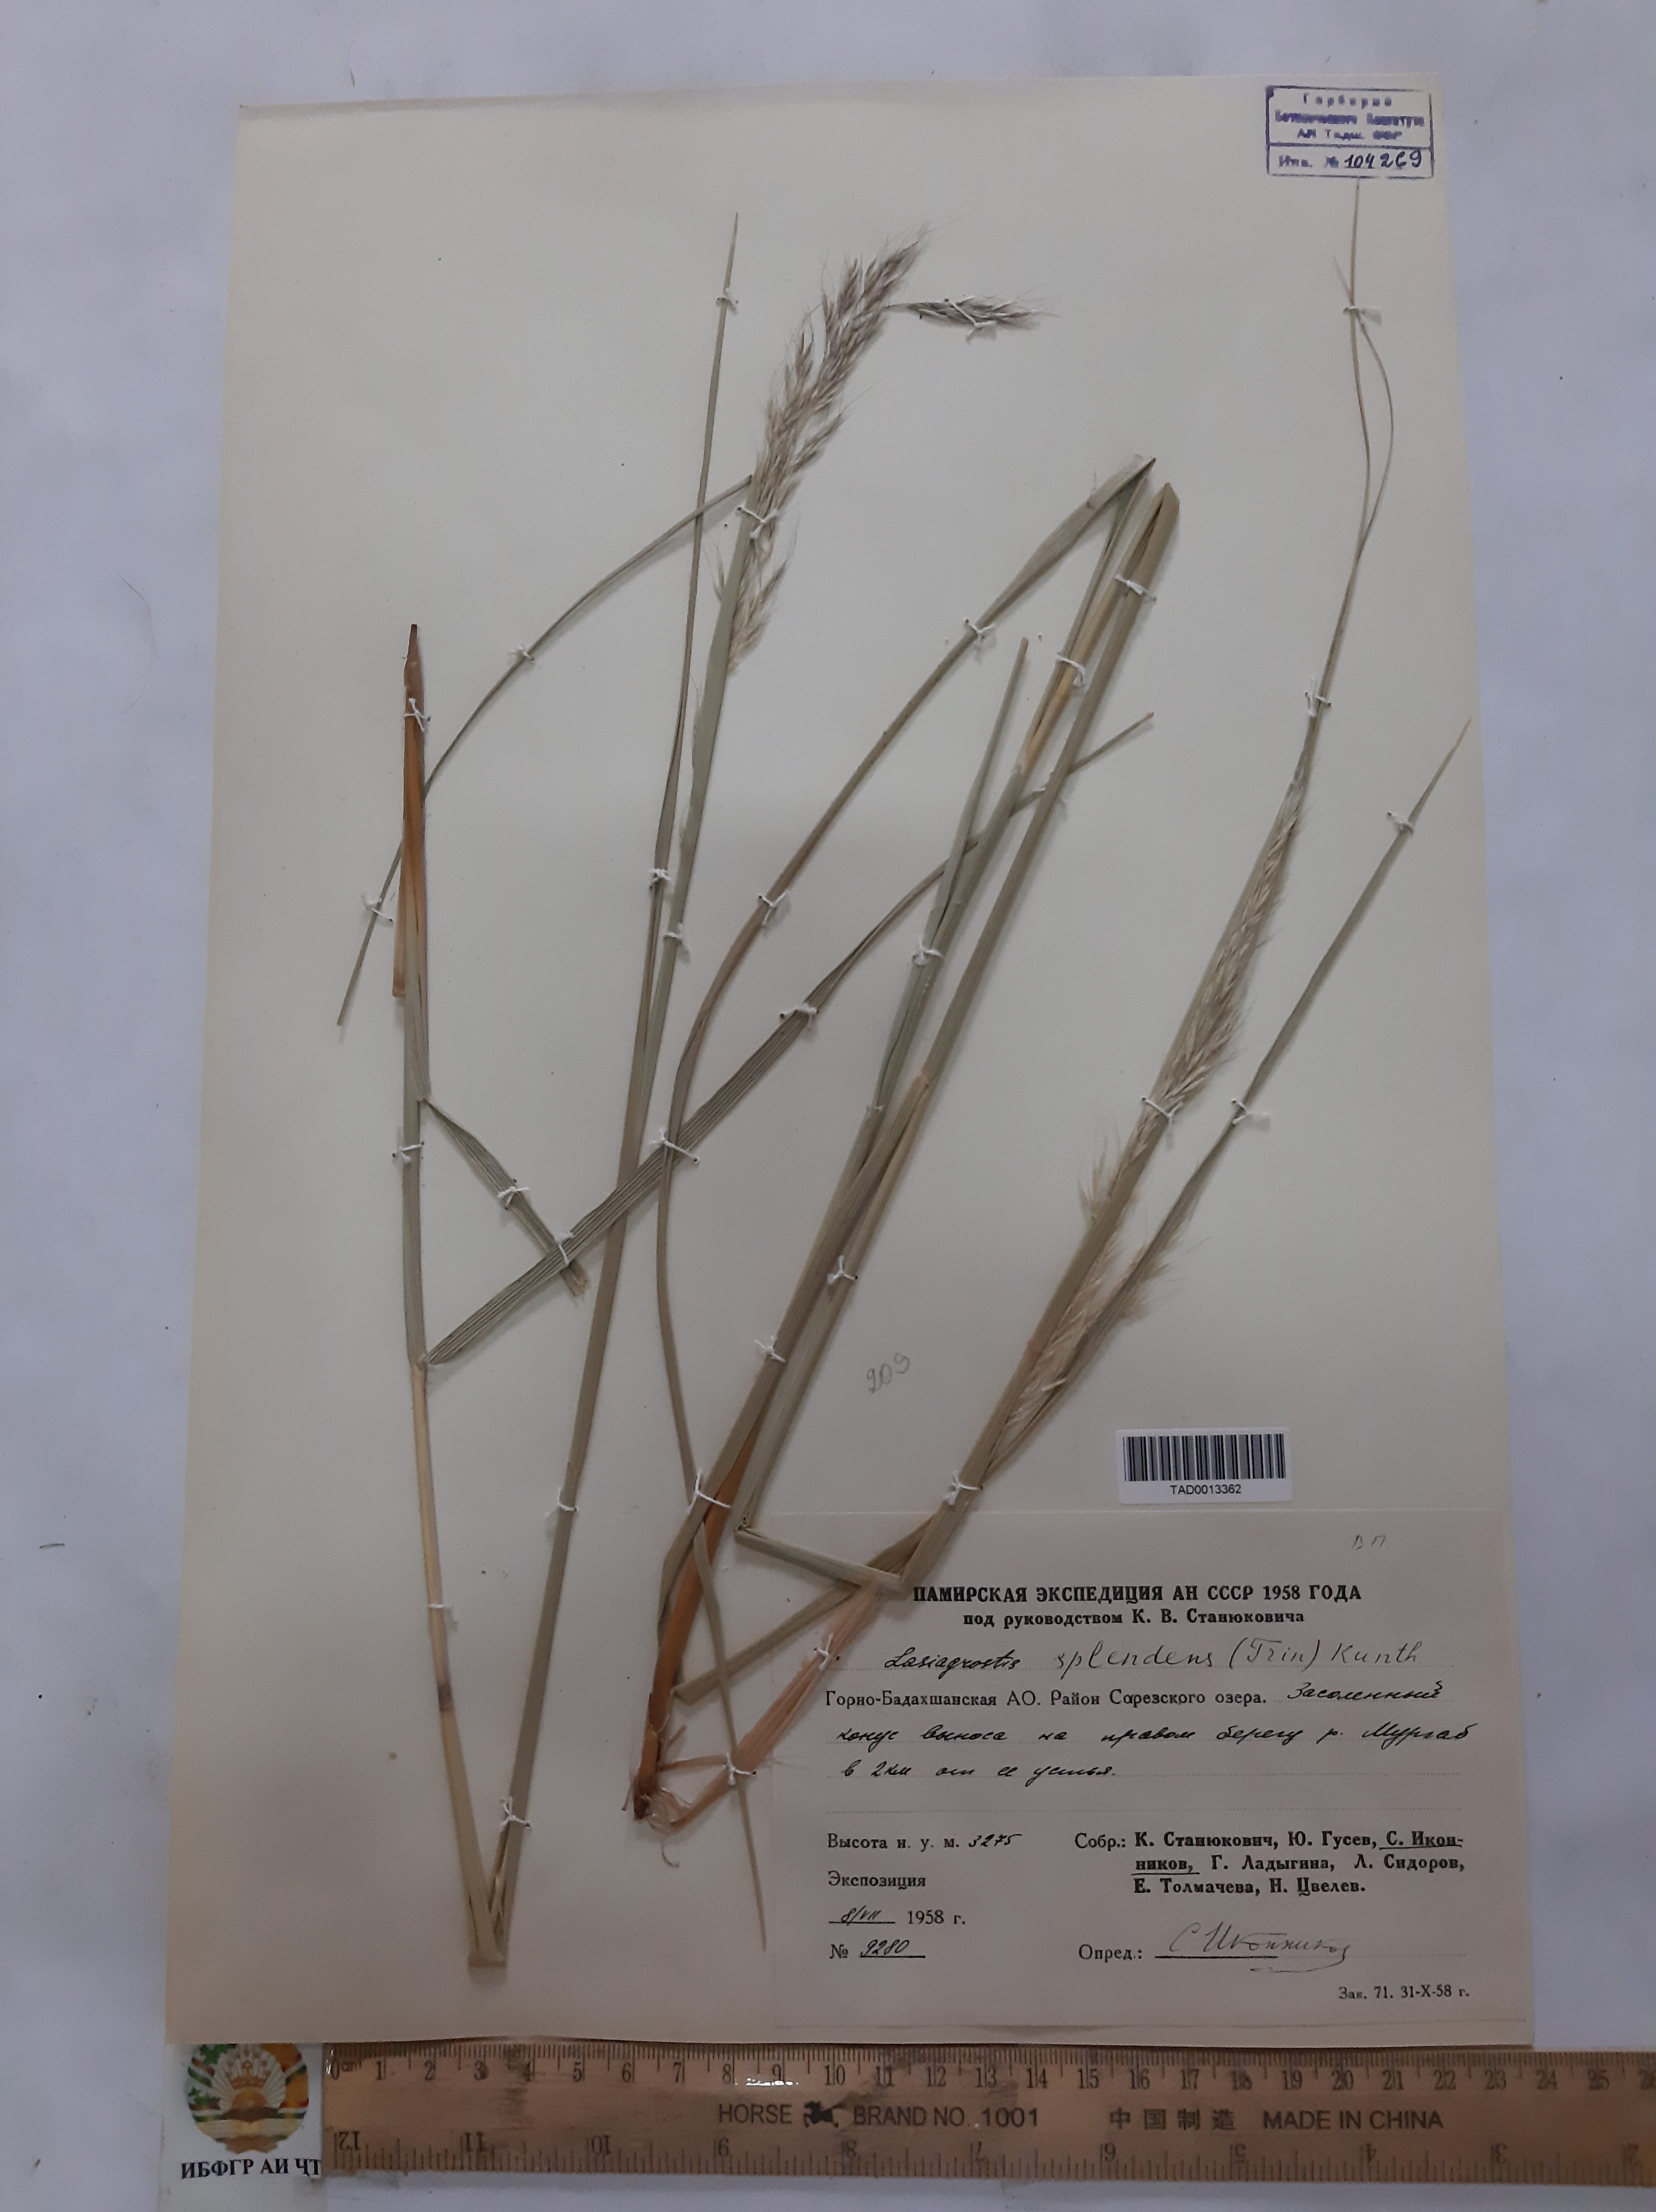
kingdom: Plantae
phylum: Tracheophyta
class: Liliopsida
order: Poales
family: Poaceae
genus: Achnatherum
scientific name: Achnatherum turcomanicum
